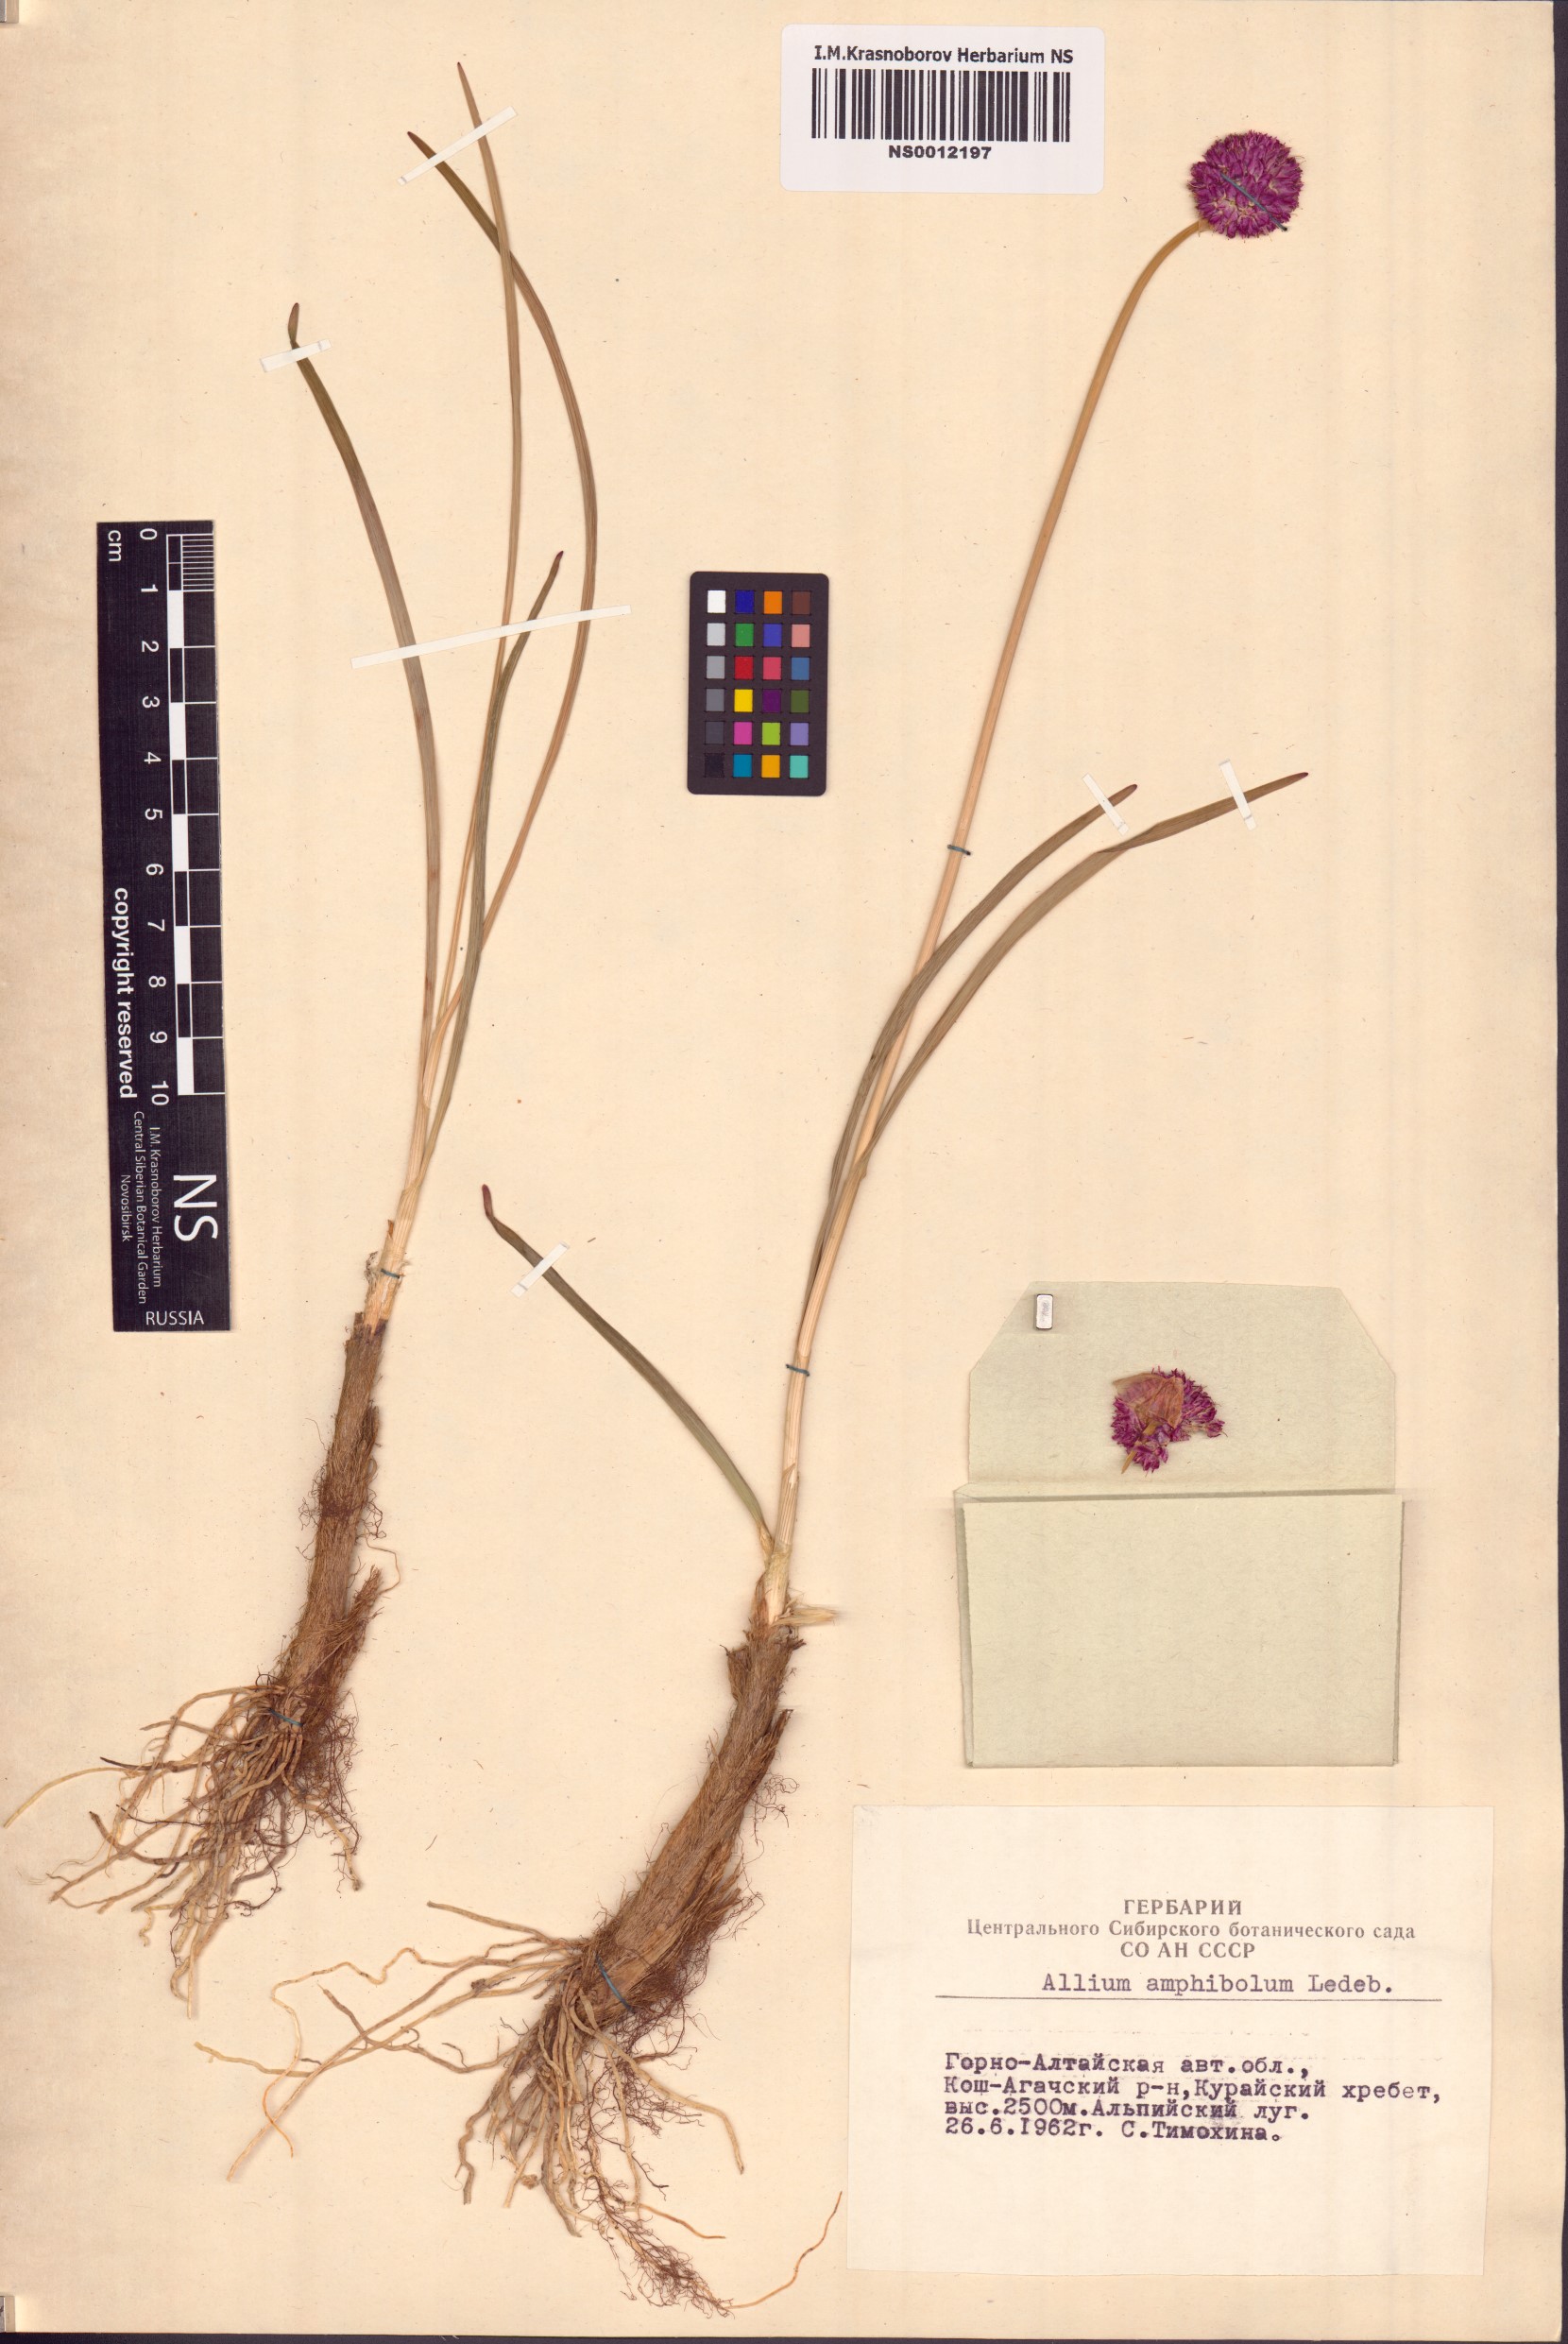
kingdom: Plantae
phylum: Tracheophyta
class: Liliopsida
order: Asparagales
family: Amaryllidaceae
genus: Allium
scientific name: Allium amphibolum
